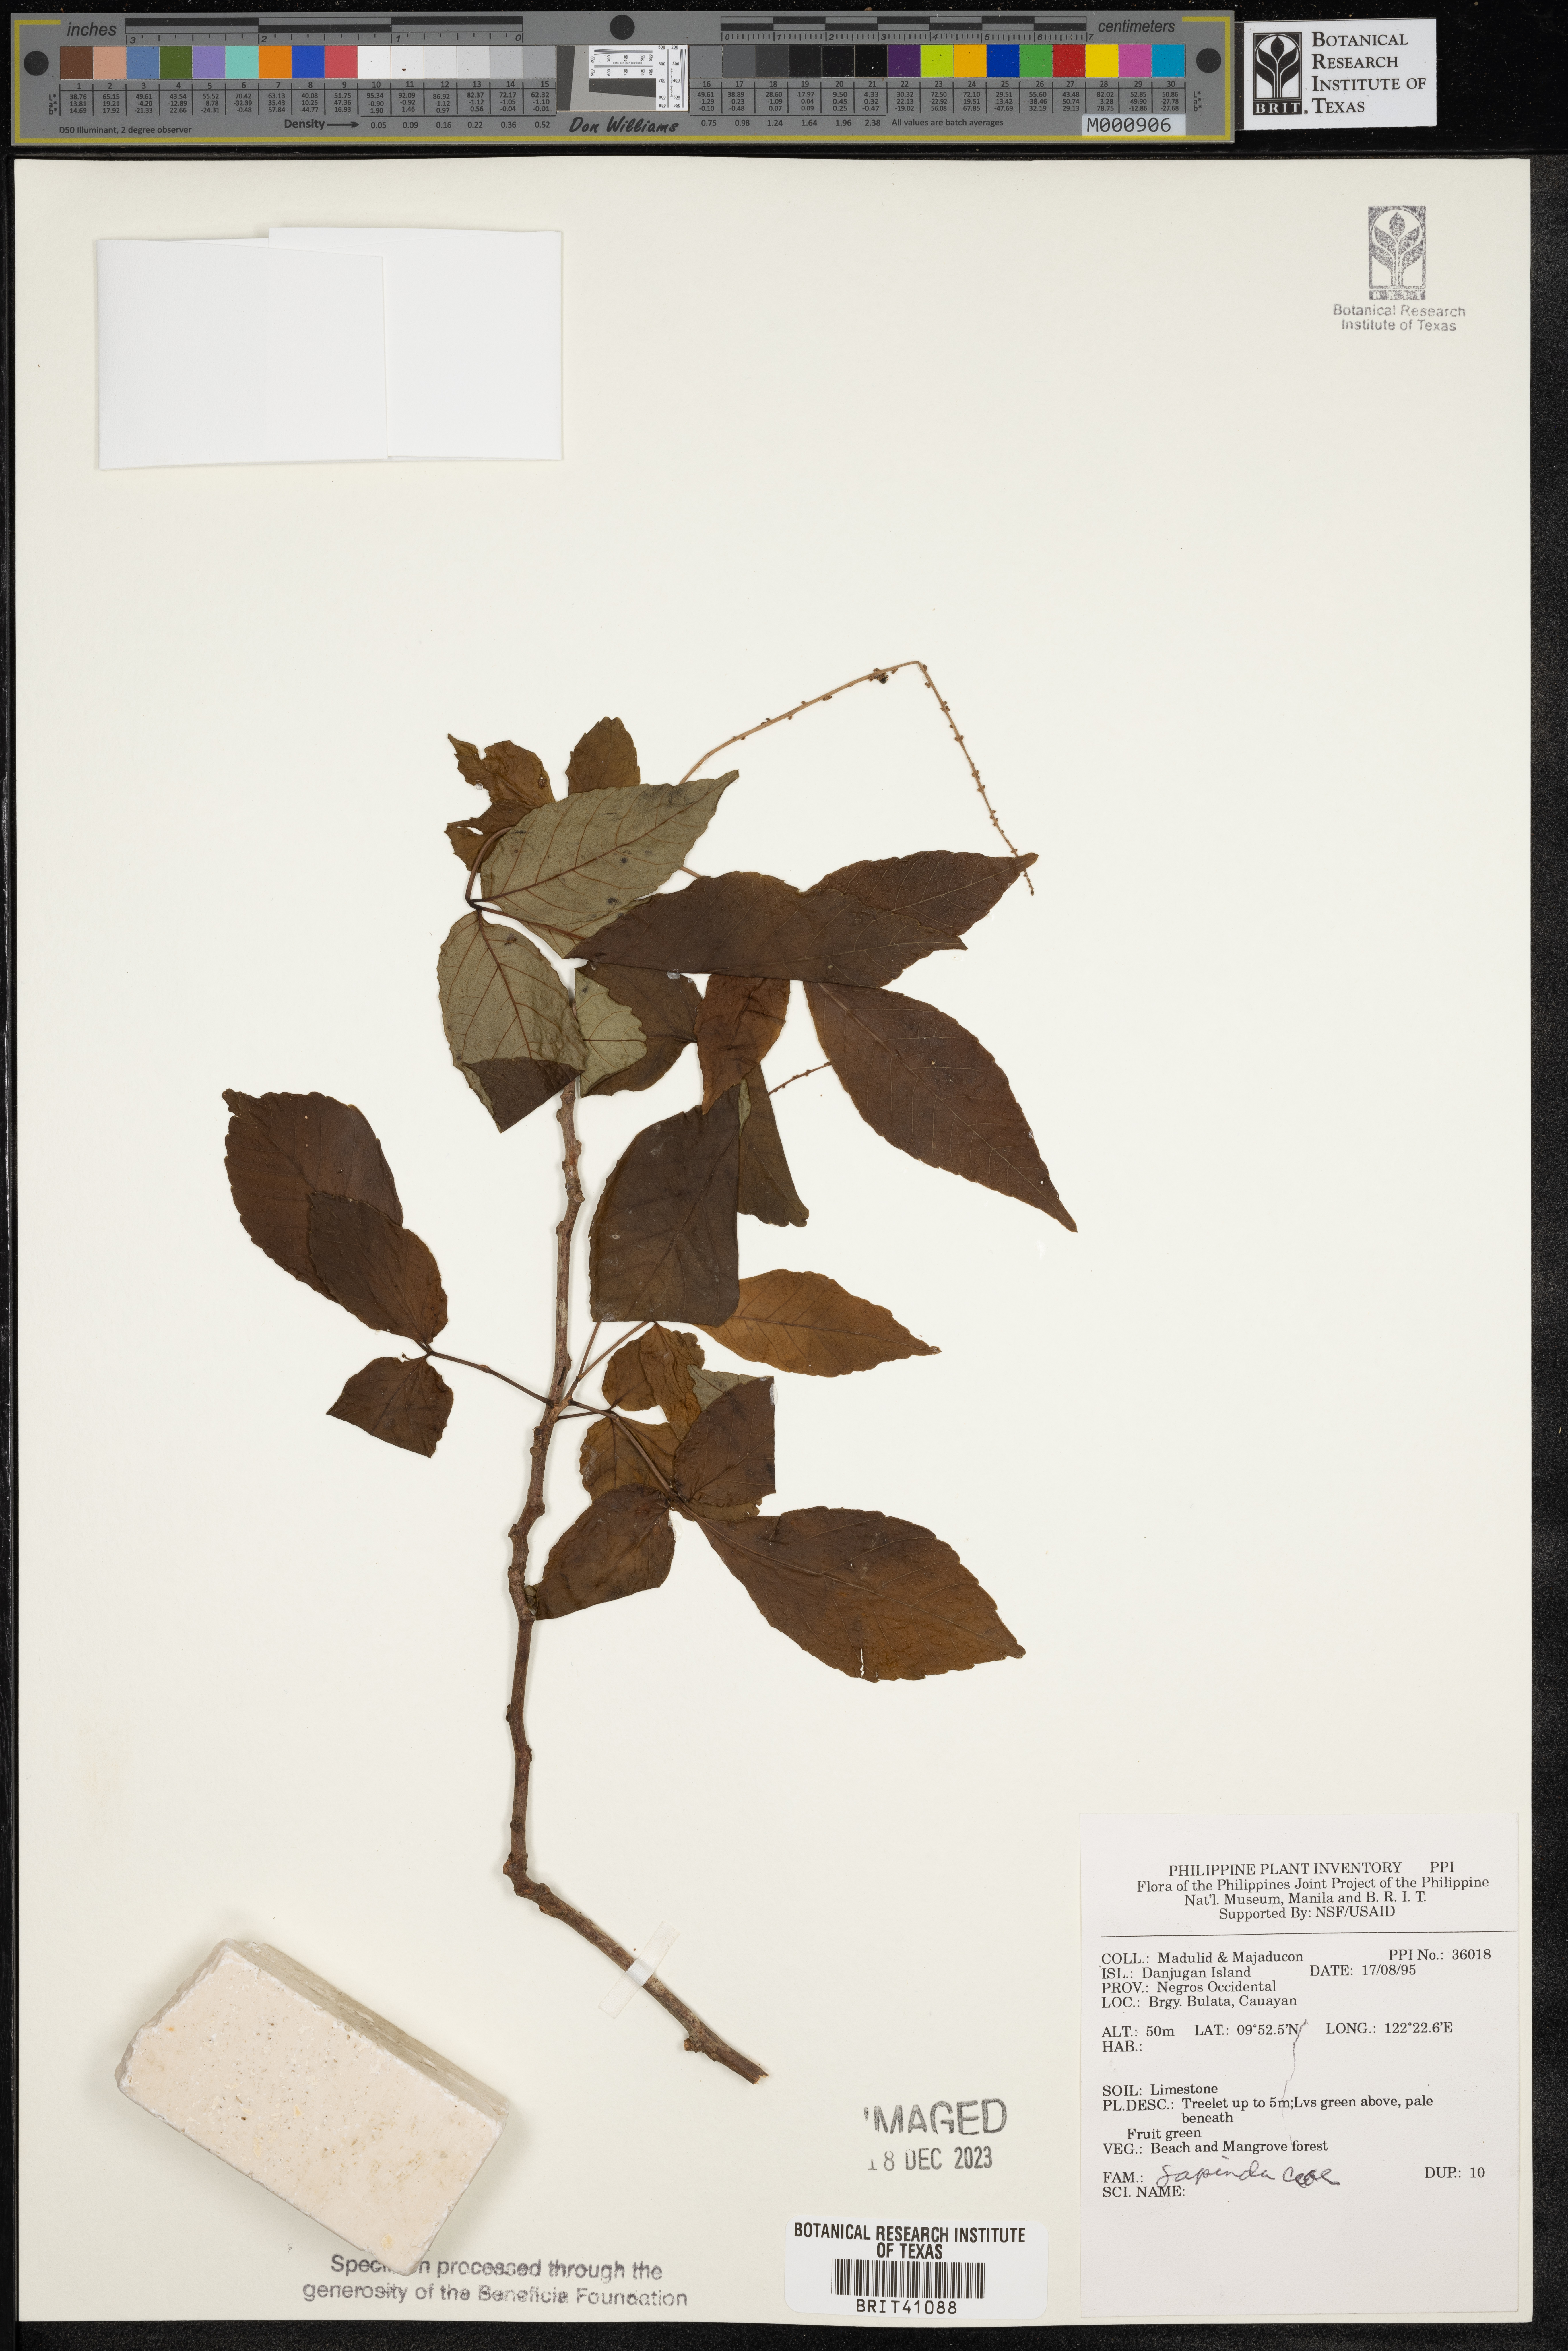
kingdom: Plantae
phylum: Tracheophyta
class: Magnoliopsida
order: Sapindales
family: Sapindaceae
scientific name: Sapindaceae
